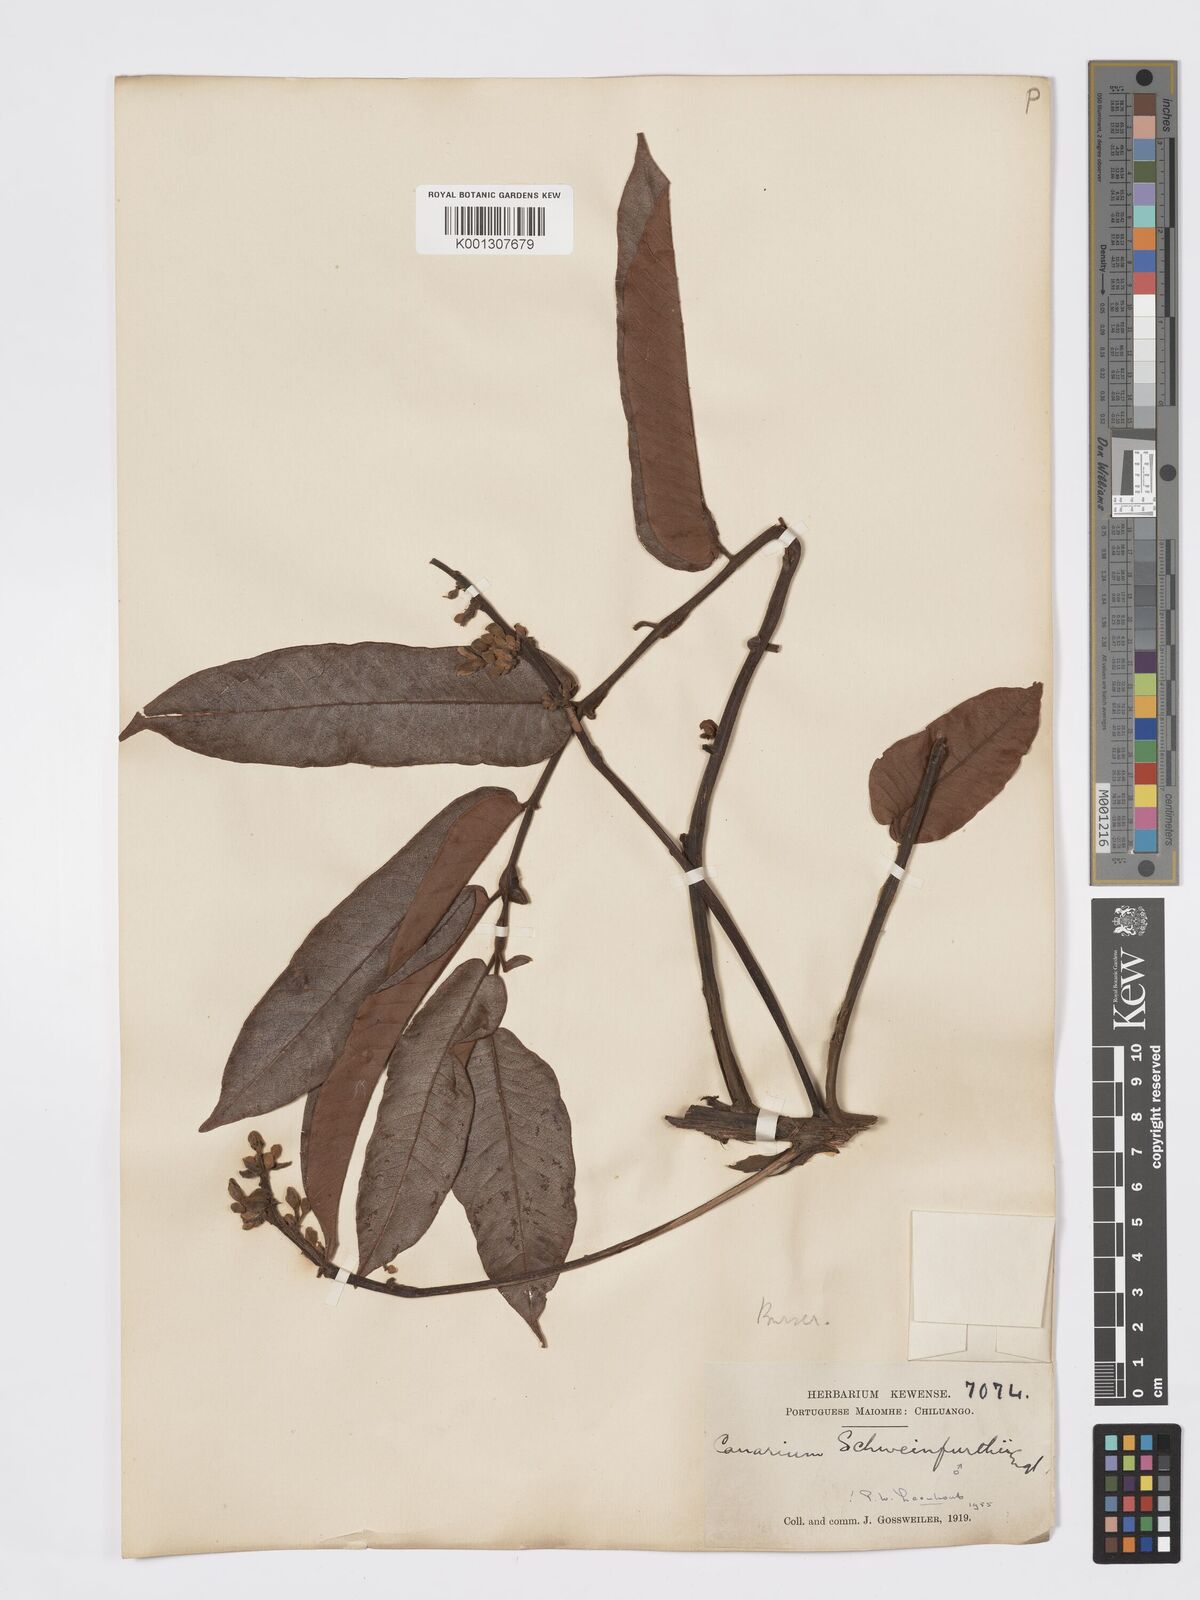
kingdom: Plantae
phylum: Tracheophyta
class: Magnoliopsida
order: Sapindales
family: Burseraceae
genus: Canarium
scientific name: Canarium schweinfurthii
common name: African elemi
